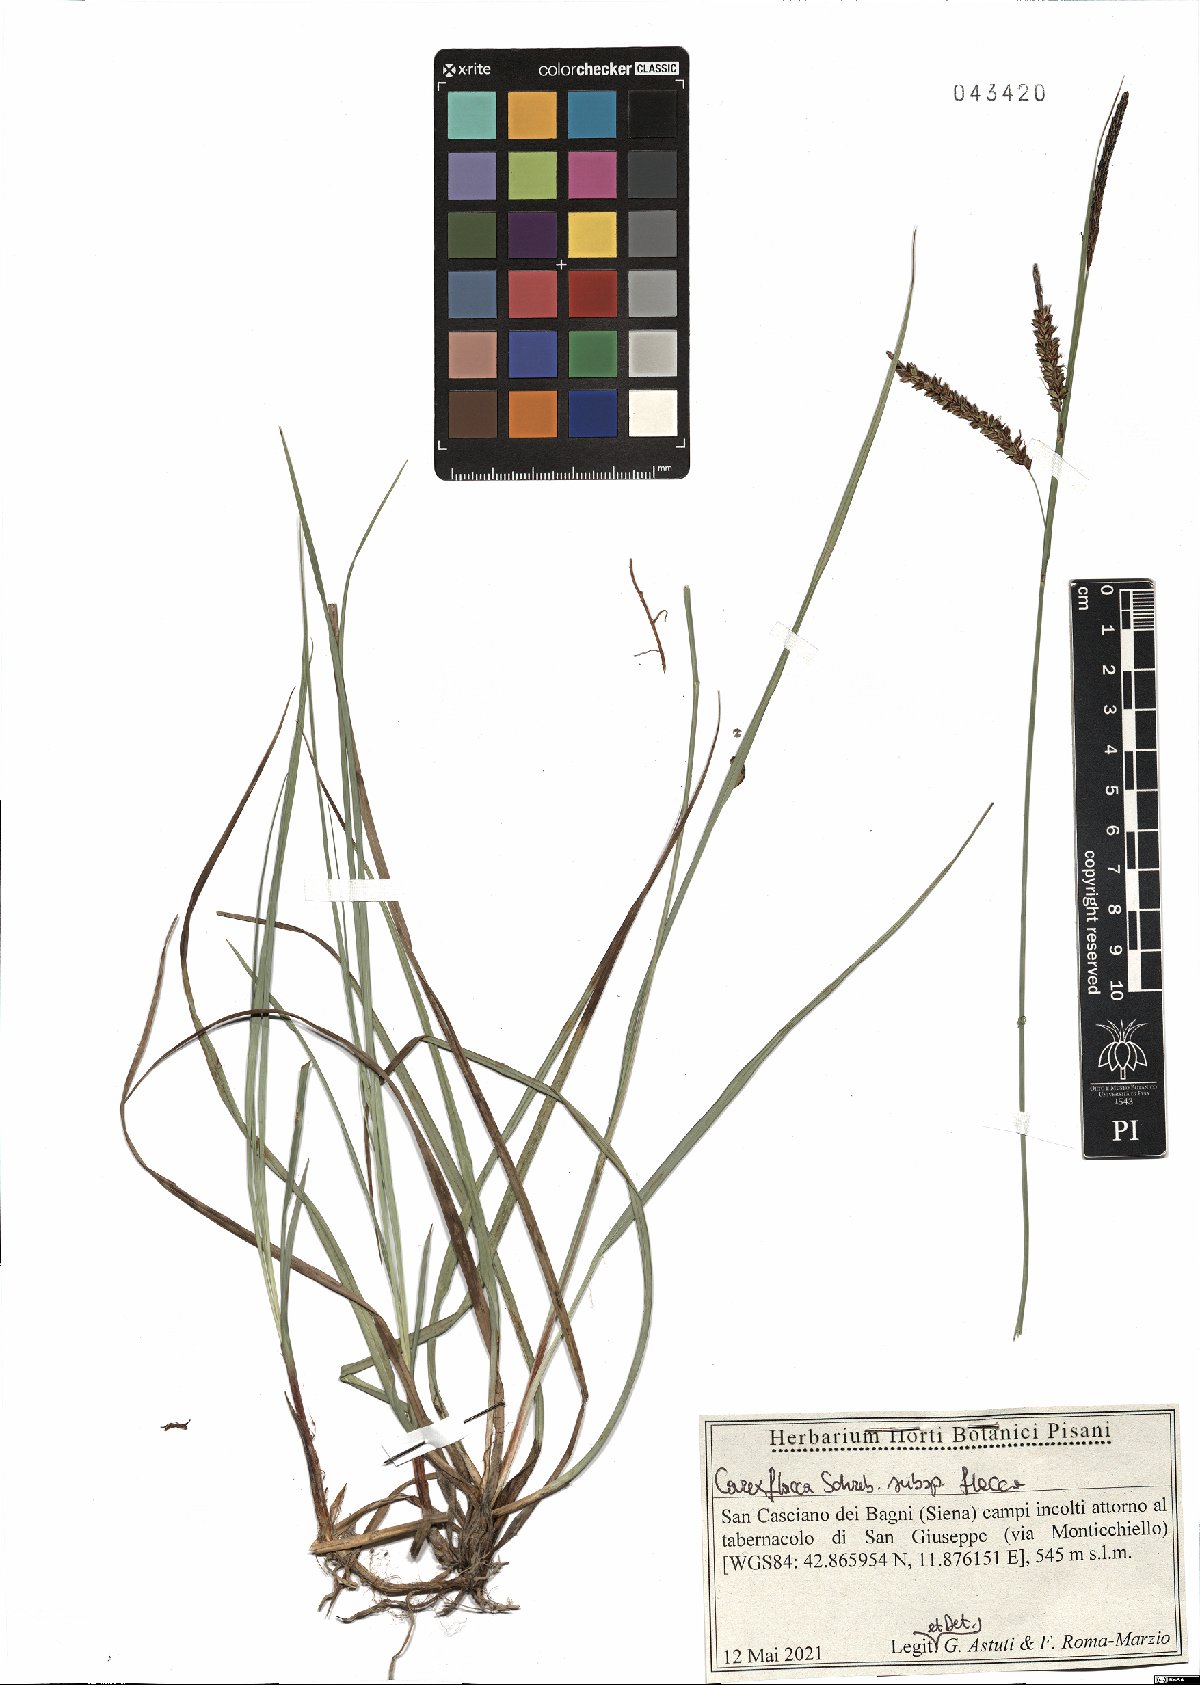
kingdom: Plantae
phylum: Tracheophyta
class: Liliopsida
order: Poales
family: Cyperaceae
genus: Carex
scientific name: Carex flacca
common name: Glaucous sedge
